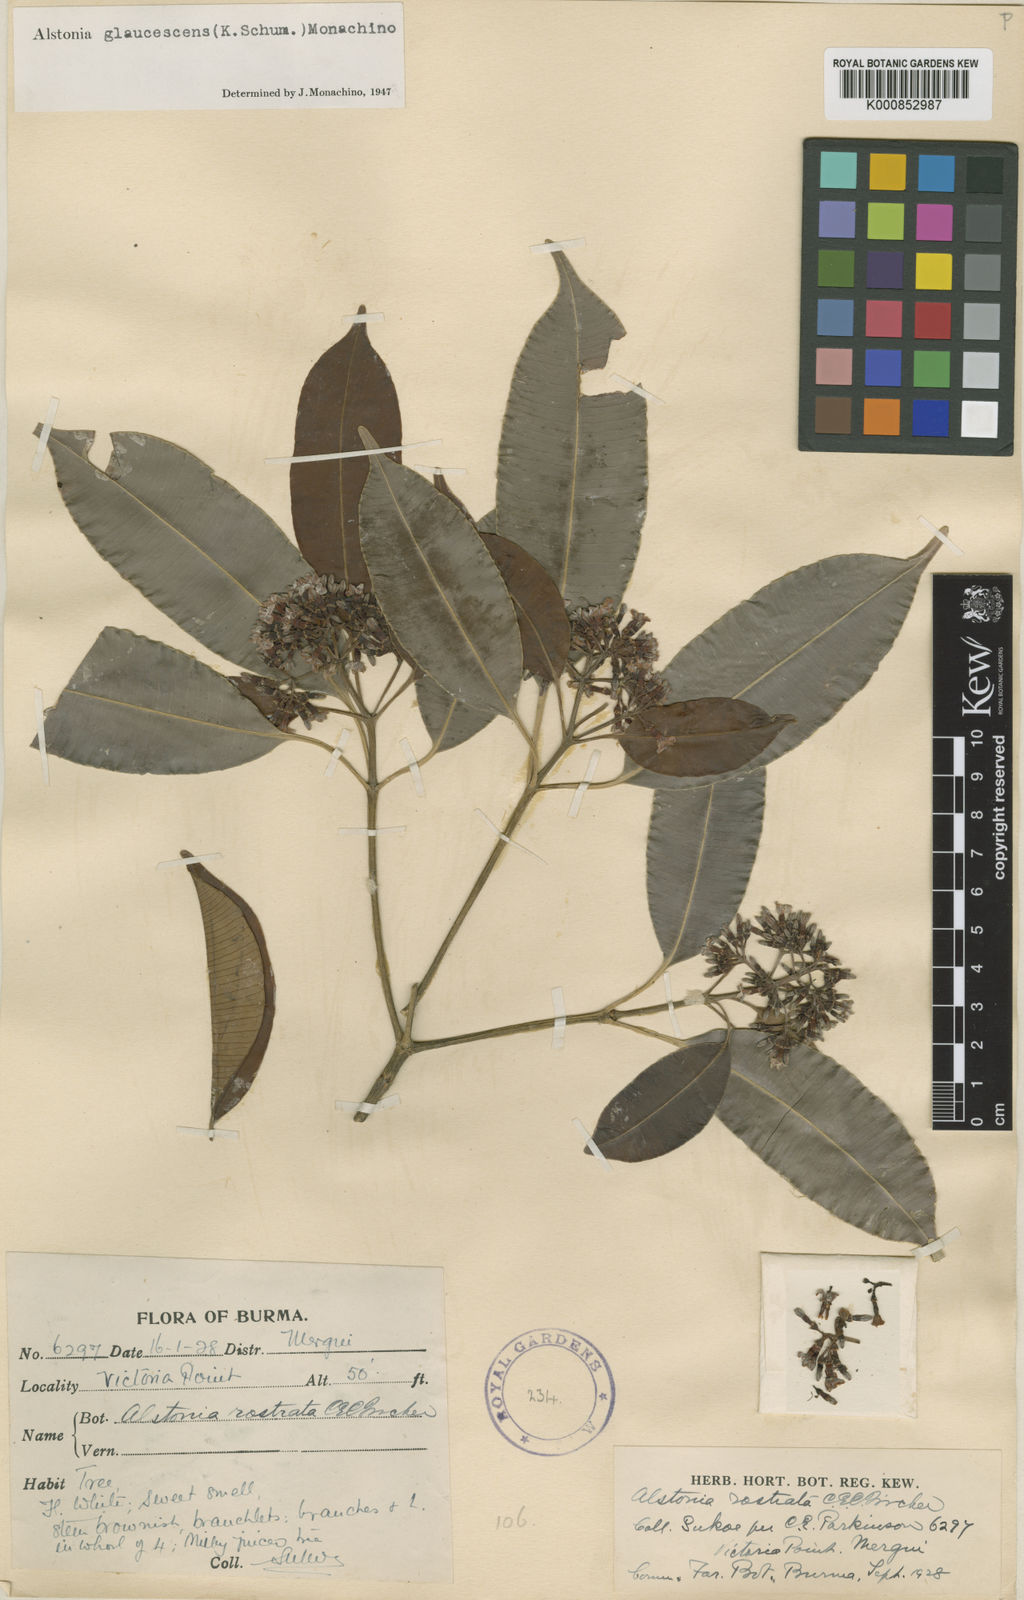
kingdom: Plantae
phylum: Tracheophyta
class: Magnoliopsida
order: Gentianales
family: Apocynaceae
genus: Alstonia
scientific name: Alstonia rostrata
